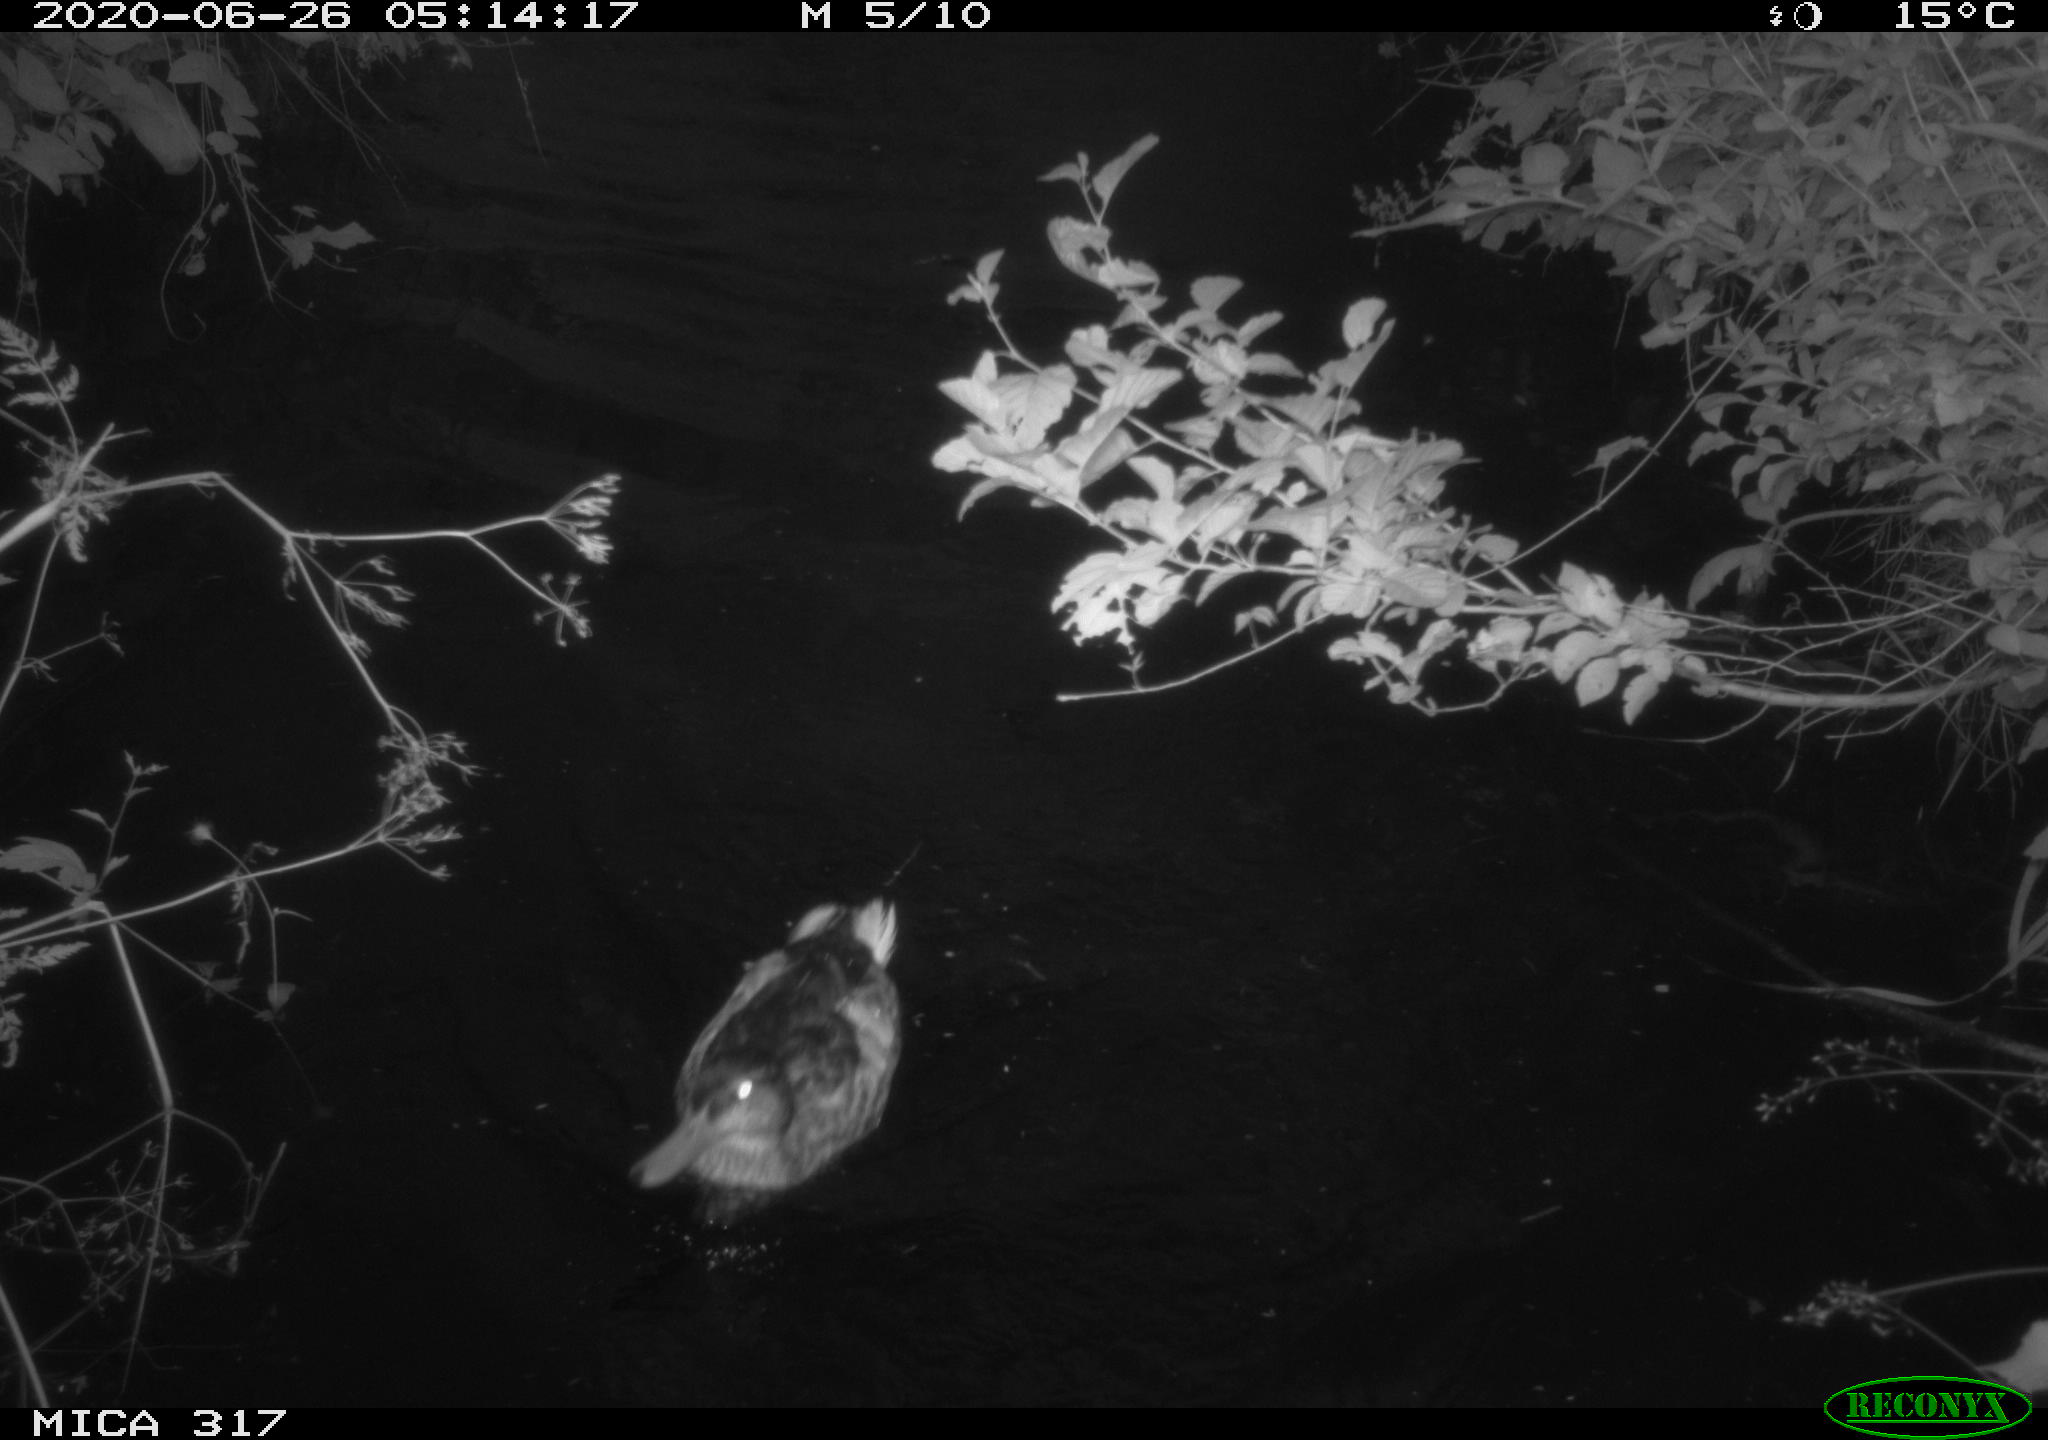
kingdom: Animalia
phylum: Chordata
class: Aves
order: Gruiformes
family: Rallidae
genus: Fulica
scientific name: Fulica atra
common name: Eurasian coot
